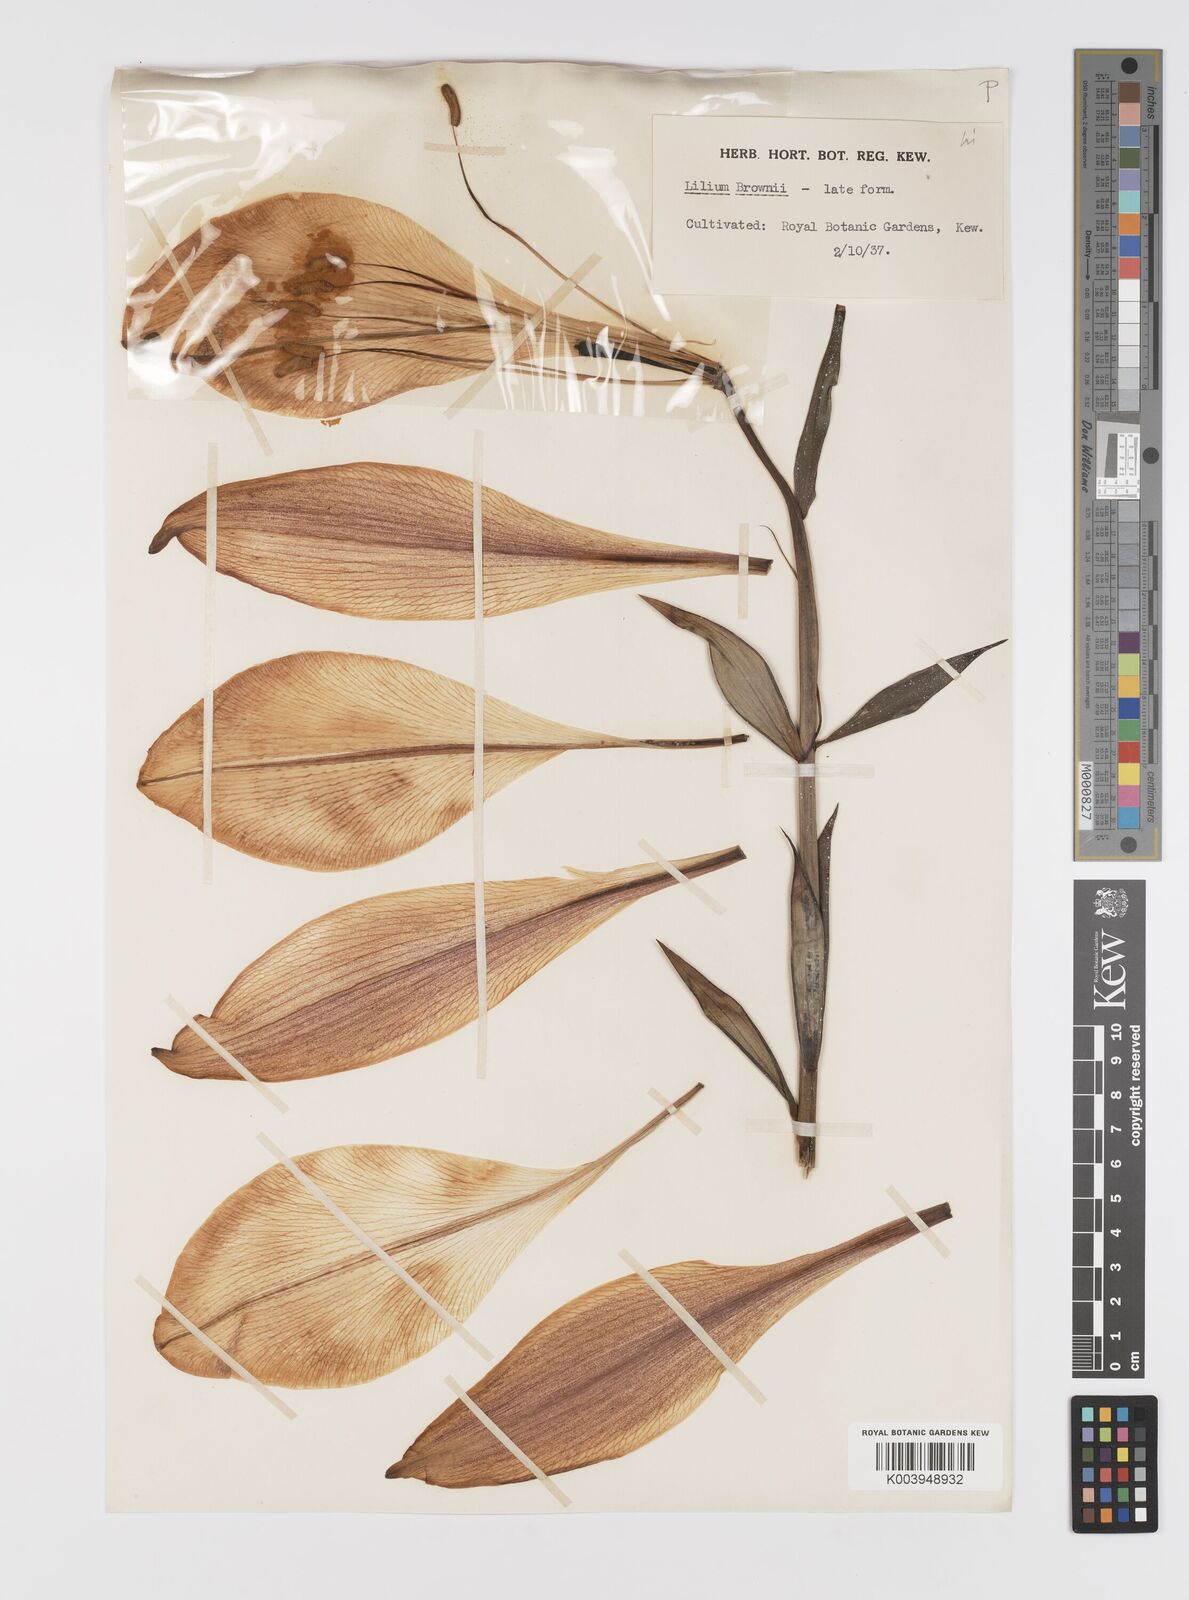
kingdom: Plantae
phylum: Tracheophyta
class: Liliopsida
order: Liliales
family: Liliaceae
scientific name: Liliaceae
